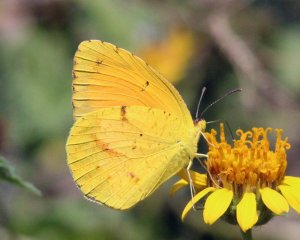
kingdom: Animalia
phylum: Arthropoda
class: Insecta
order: Lepidoptera
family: Pieridae
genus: Abaeis
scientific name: Abaeis nicippe
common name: Sleepy Orange
